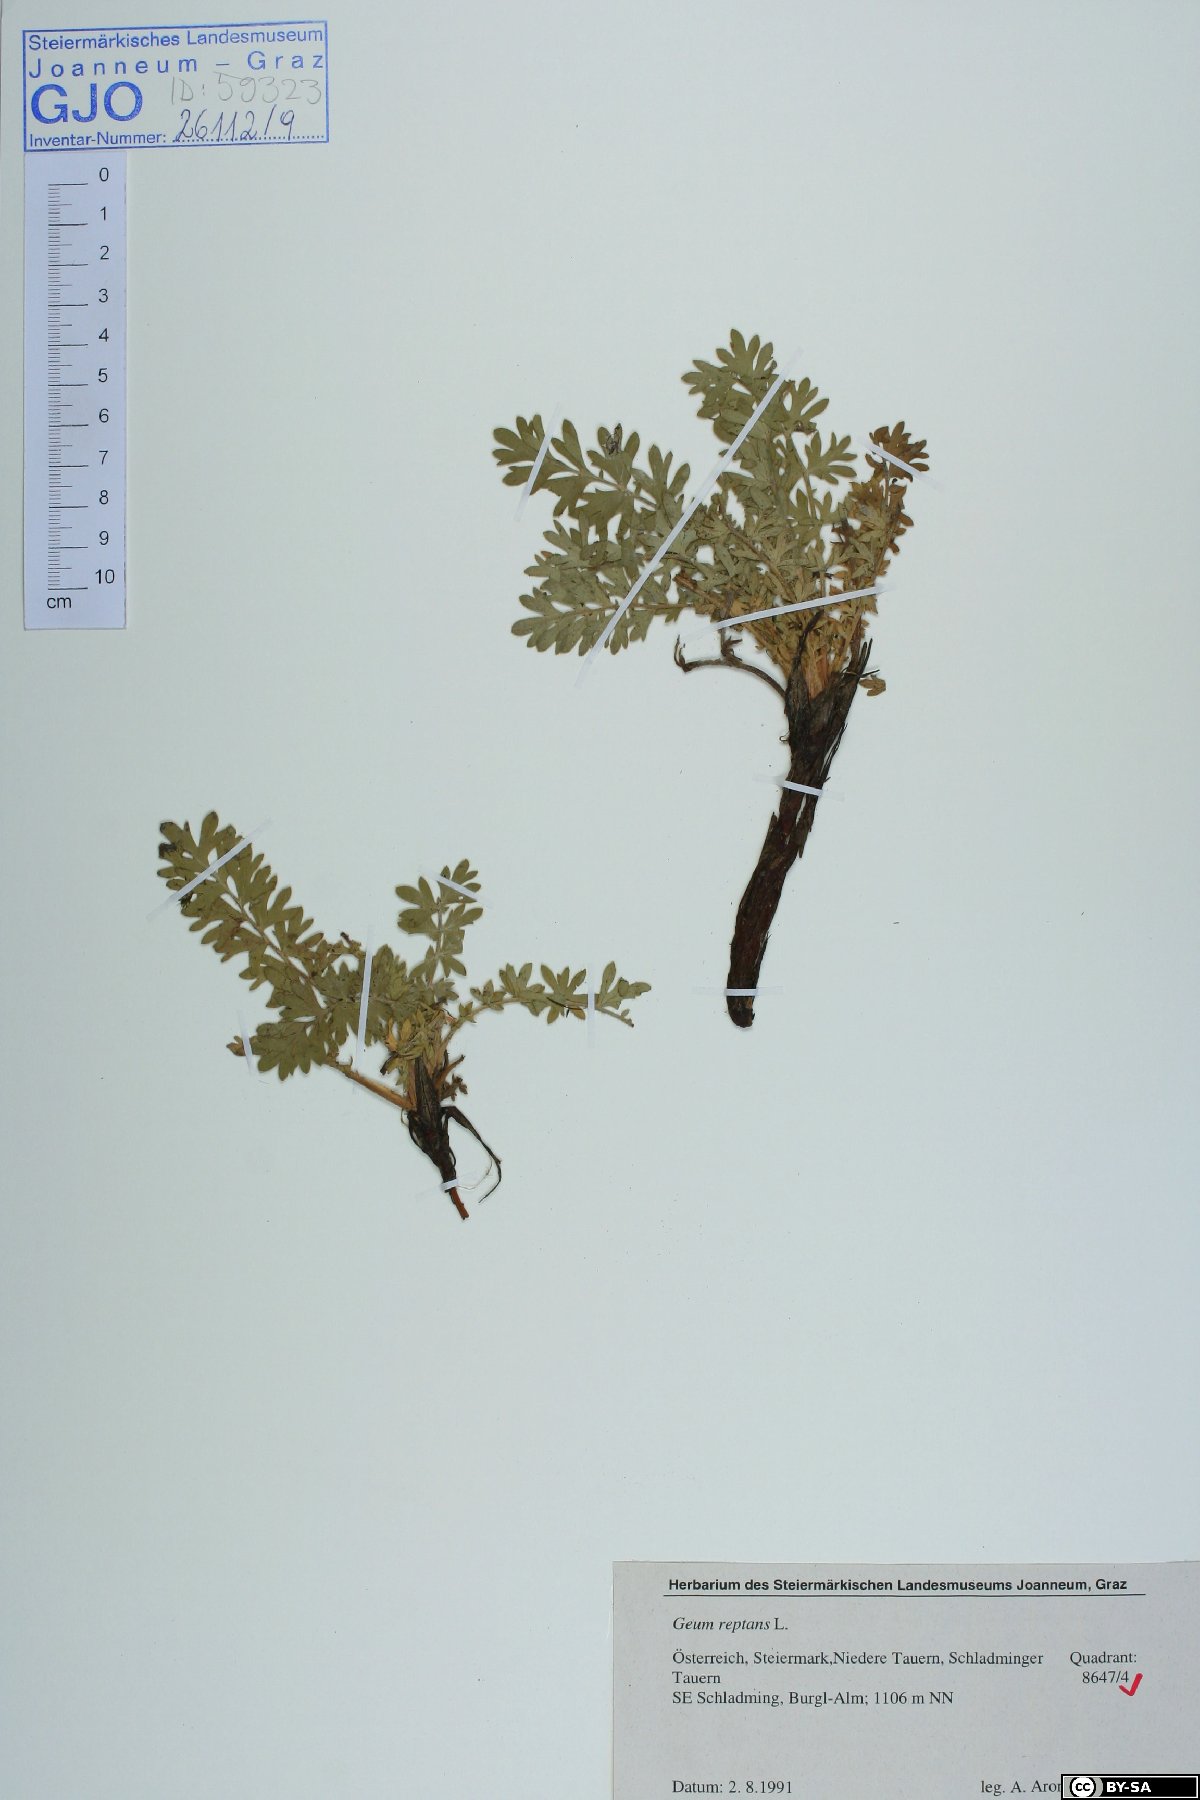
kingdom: Plantae
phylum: Tracheophyta
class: Magnoliopsida
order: Rosales
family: Rosaceae
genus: Geum
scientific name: Geum reptans
